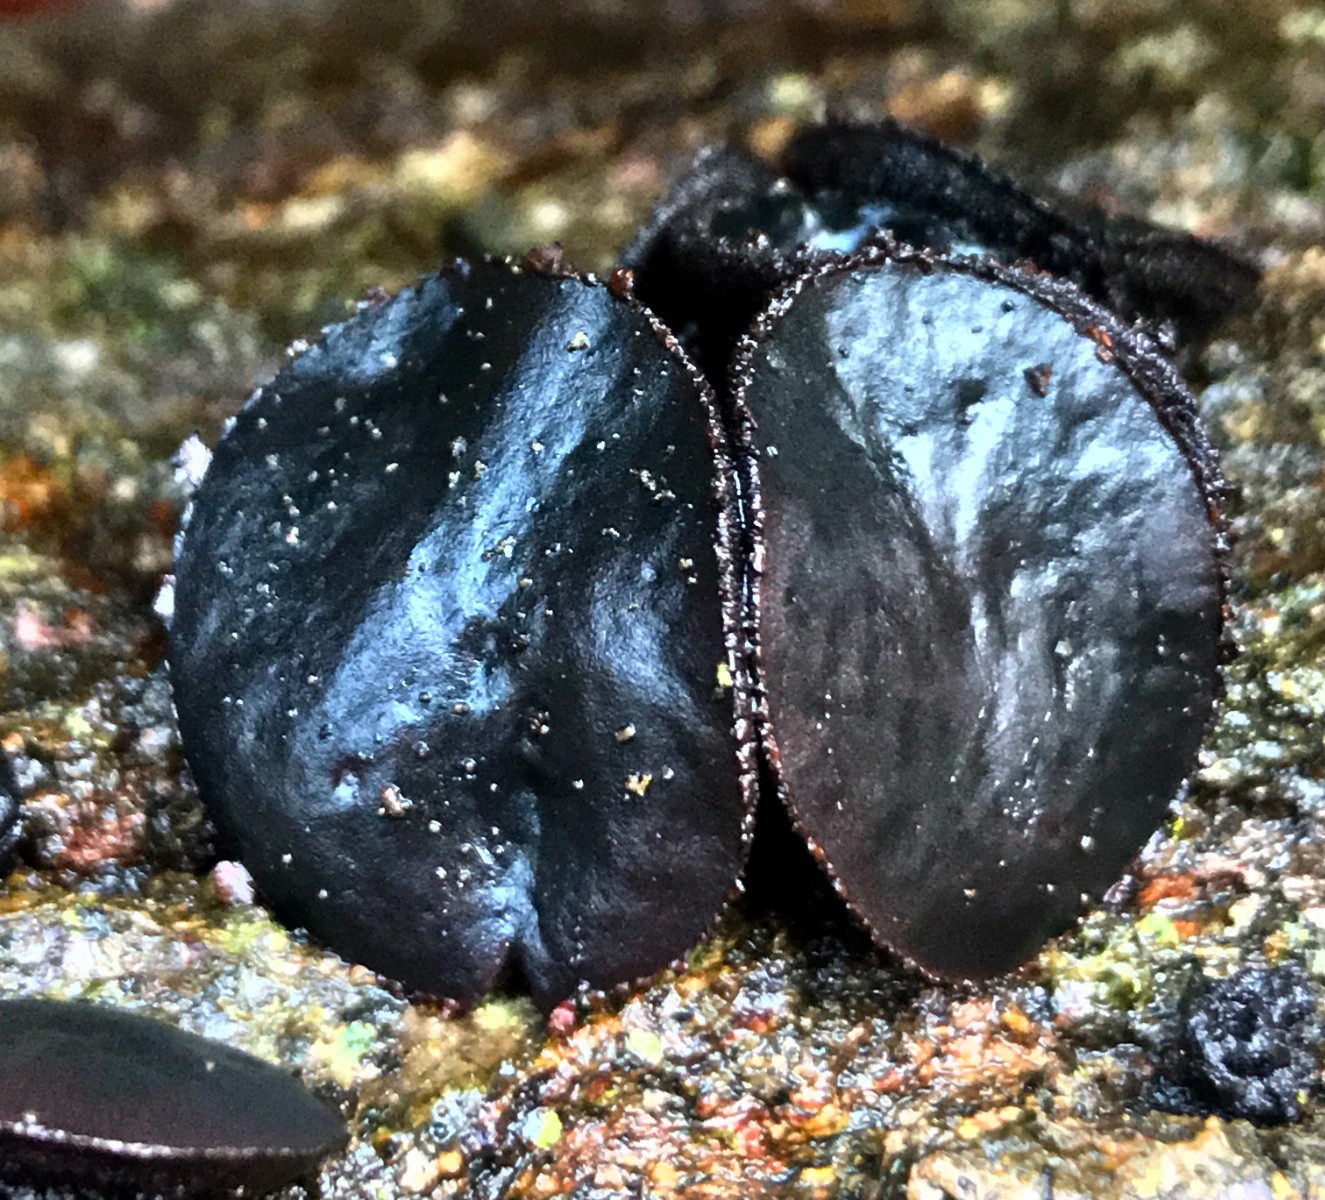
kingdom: Fungi
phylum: Ascomycota
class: Leotiomycetes
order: Phacidiales
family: Phacidiaceae
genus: Bulgaria
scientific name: Bulgaria inquinans
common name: afsmittende topsvamp
